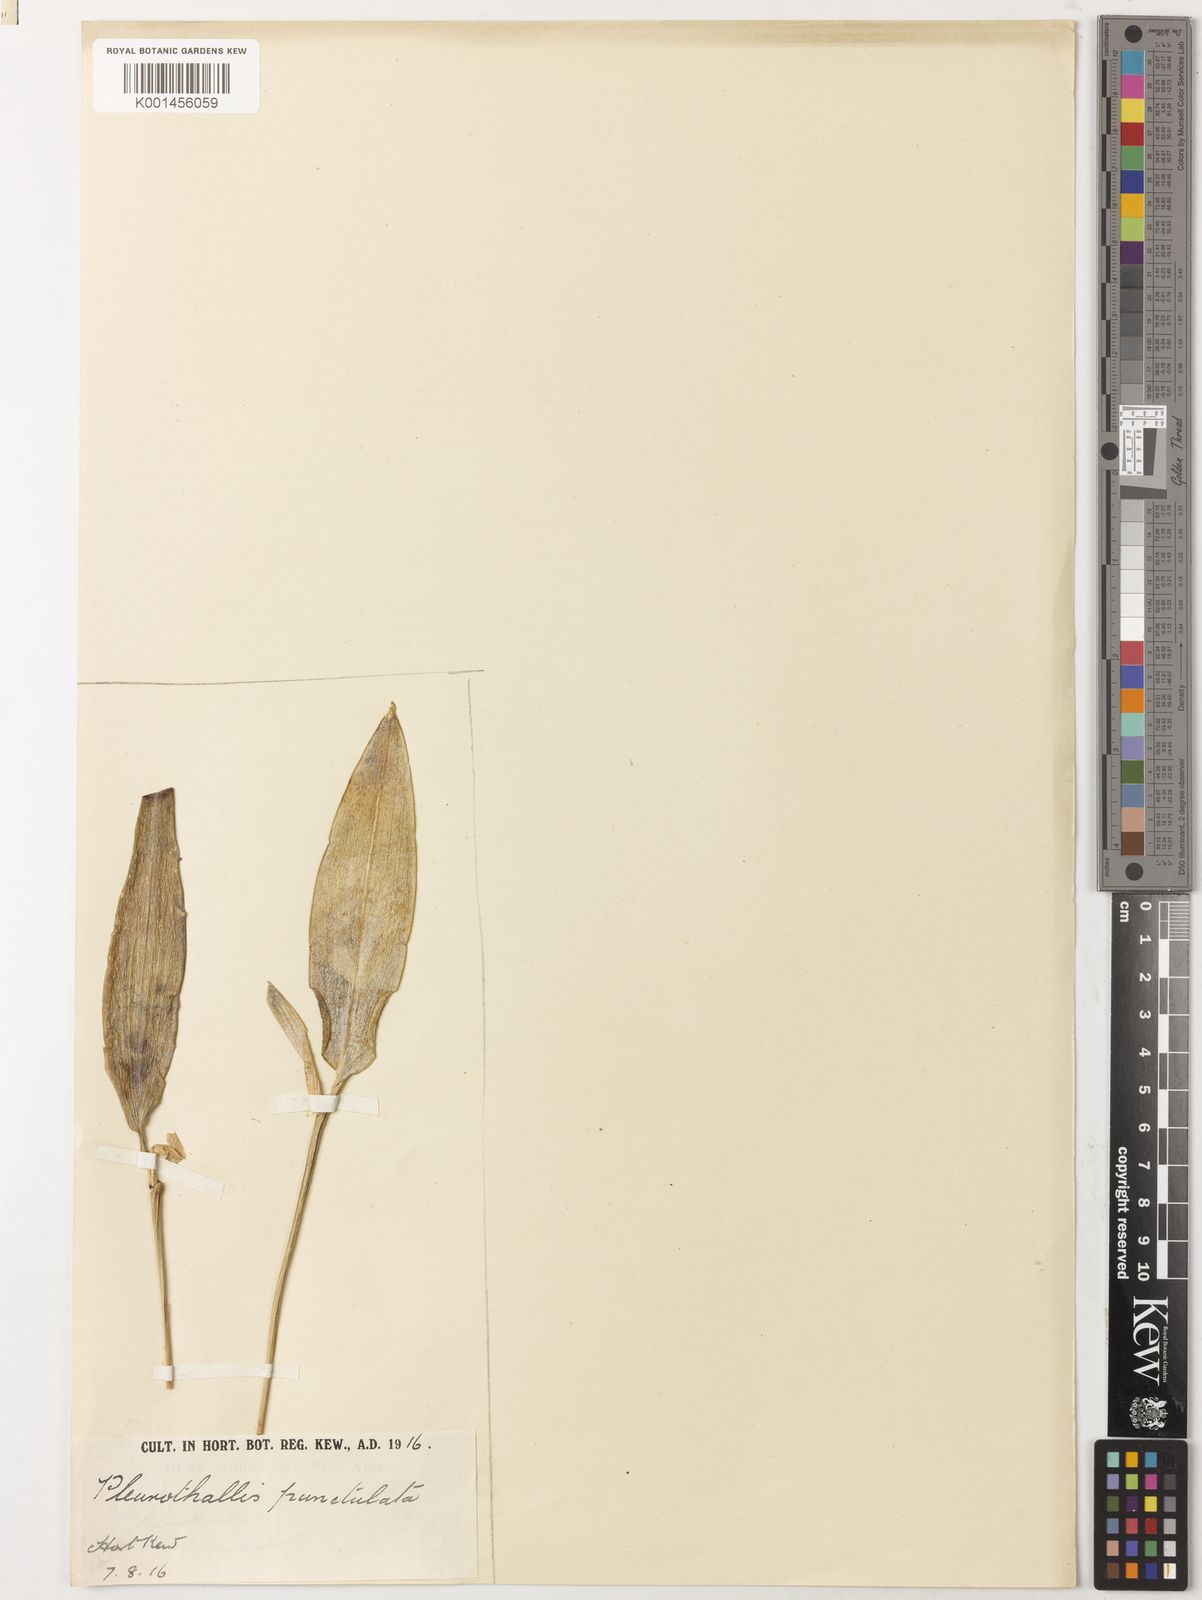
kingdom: Plantae
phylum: Tracheophyta
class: Liliopsida
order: Asparagales
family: Orchidaceae
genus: Pleurothallis
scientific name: Pleurothallis punctulata
